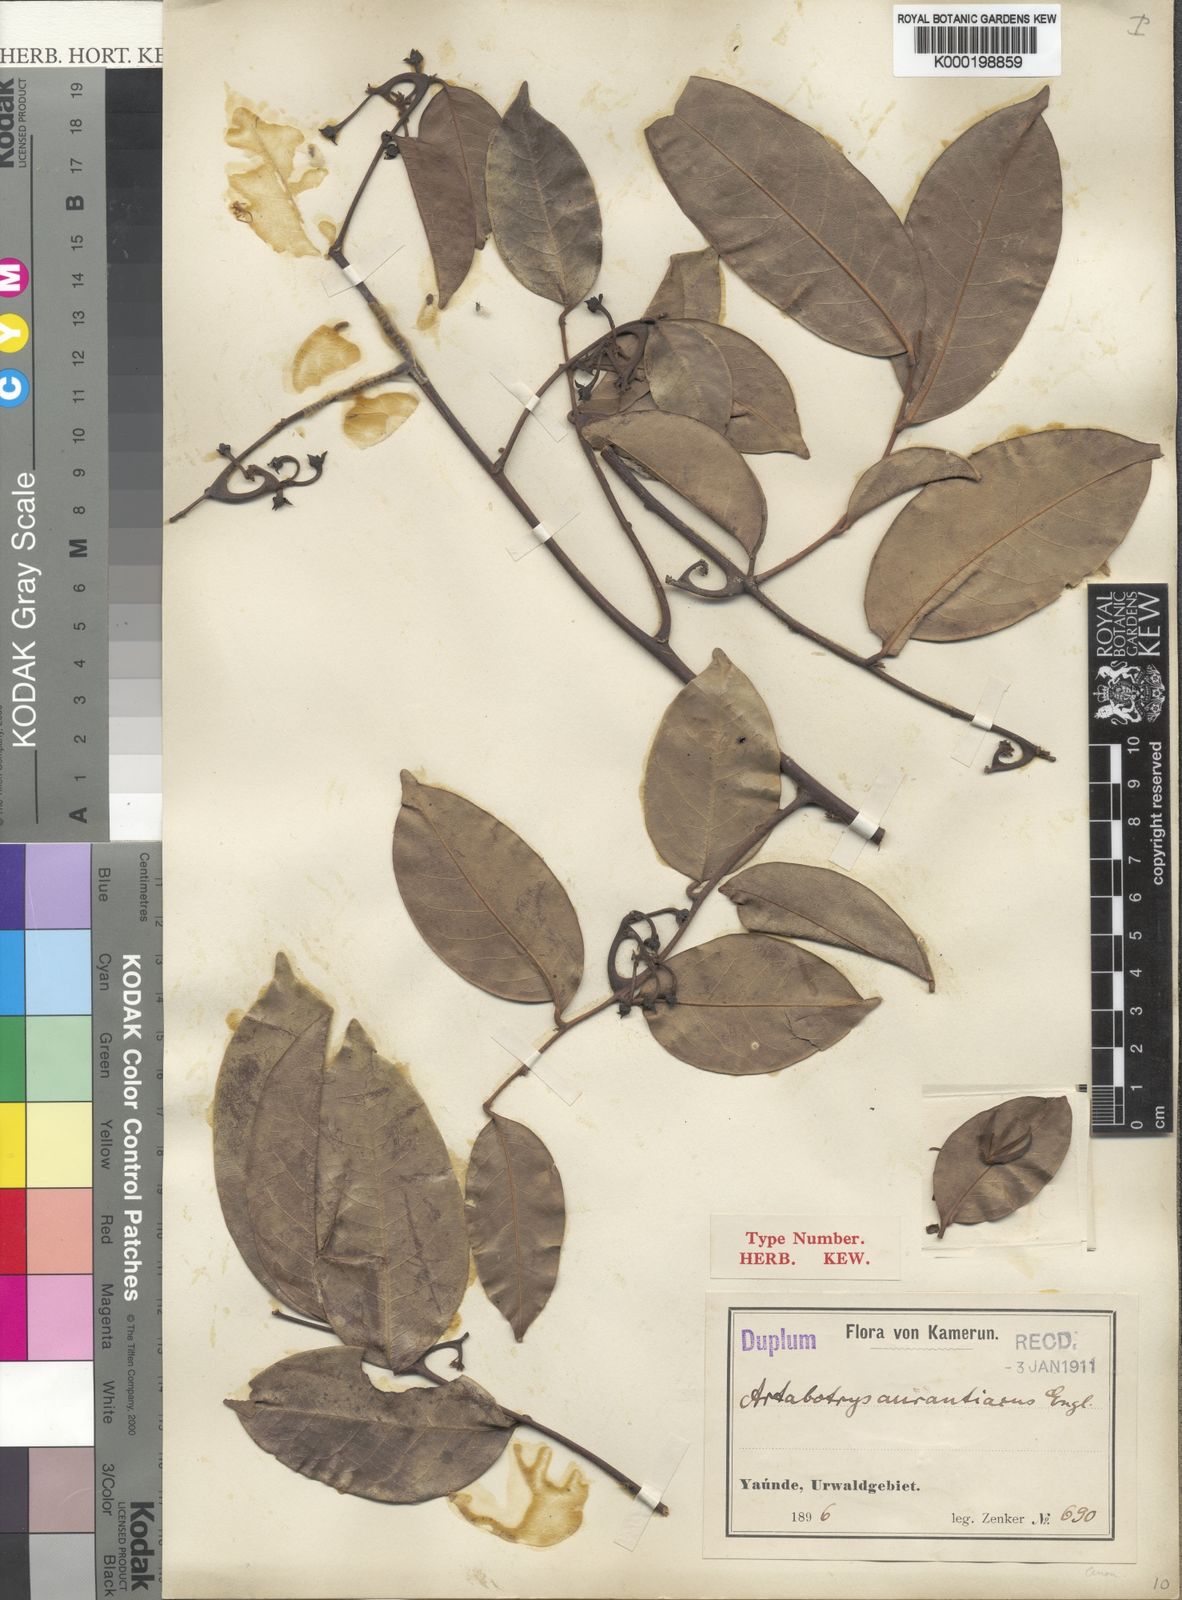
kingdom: Plantae
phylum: Tracheophyta
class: Magnoliopsida
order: Magnoliales
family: Annonaceae
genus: Artabotrys
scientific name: Artabotrys aurantiacus
